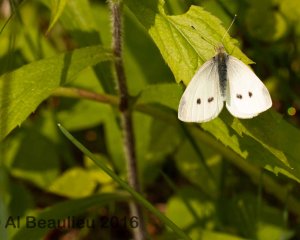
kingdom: Animalia
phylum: Arthropoda
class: Insecta
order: Lepidoptera
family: Pieridae
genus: Pieris
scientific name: Pieris rapae
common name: Cabbage White
